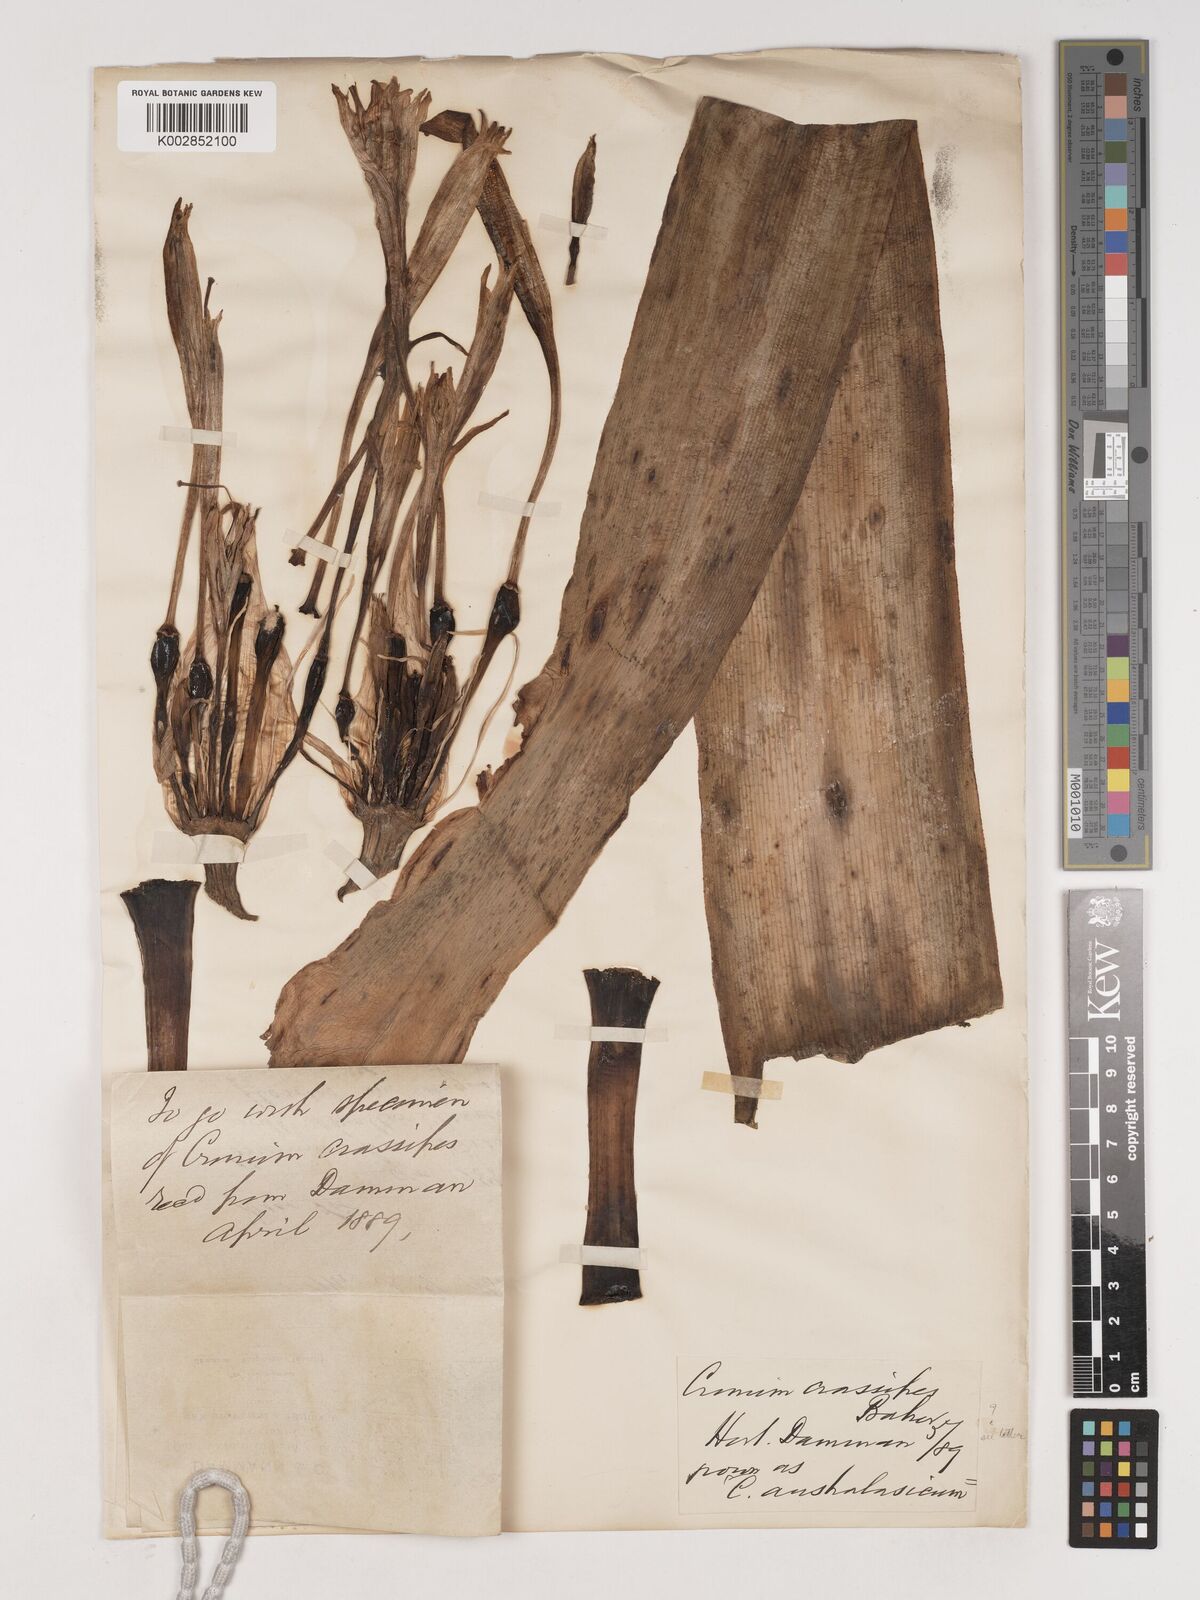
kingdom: Plantae
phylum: Tracheophyta
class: Liliopsida
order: Asparagales
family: Amaryllidaceae
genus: Crinum
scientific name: Crinum variabile
